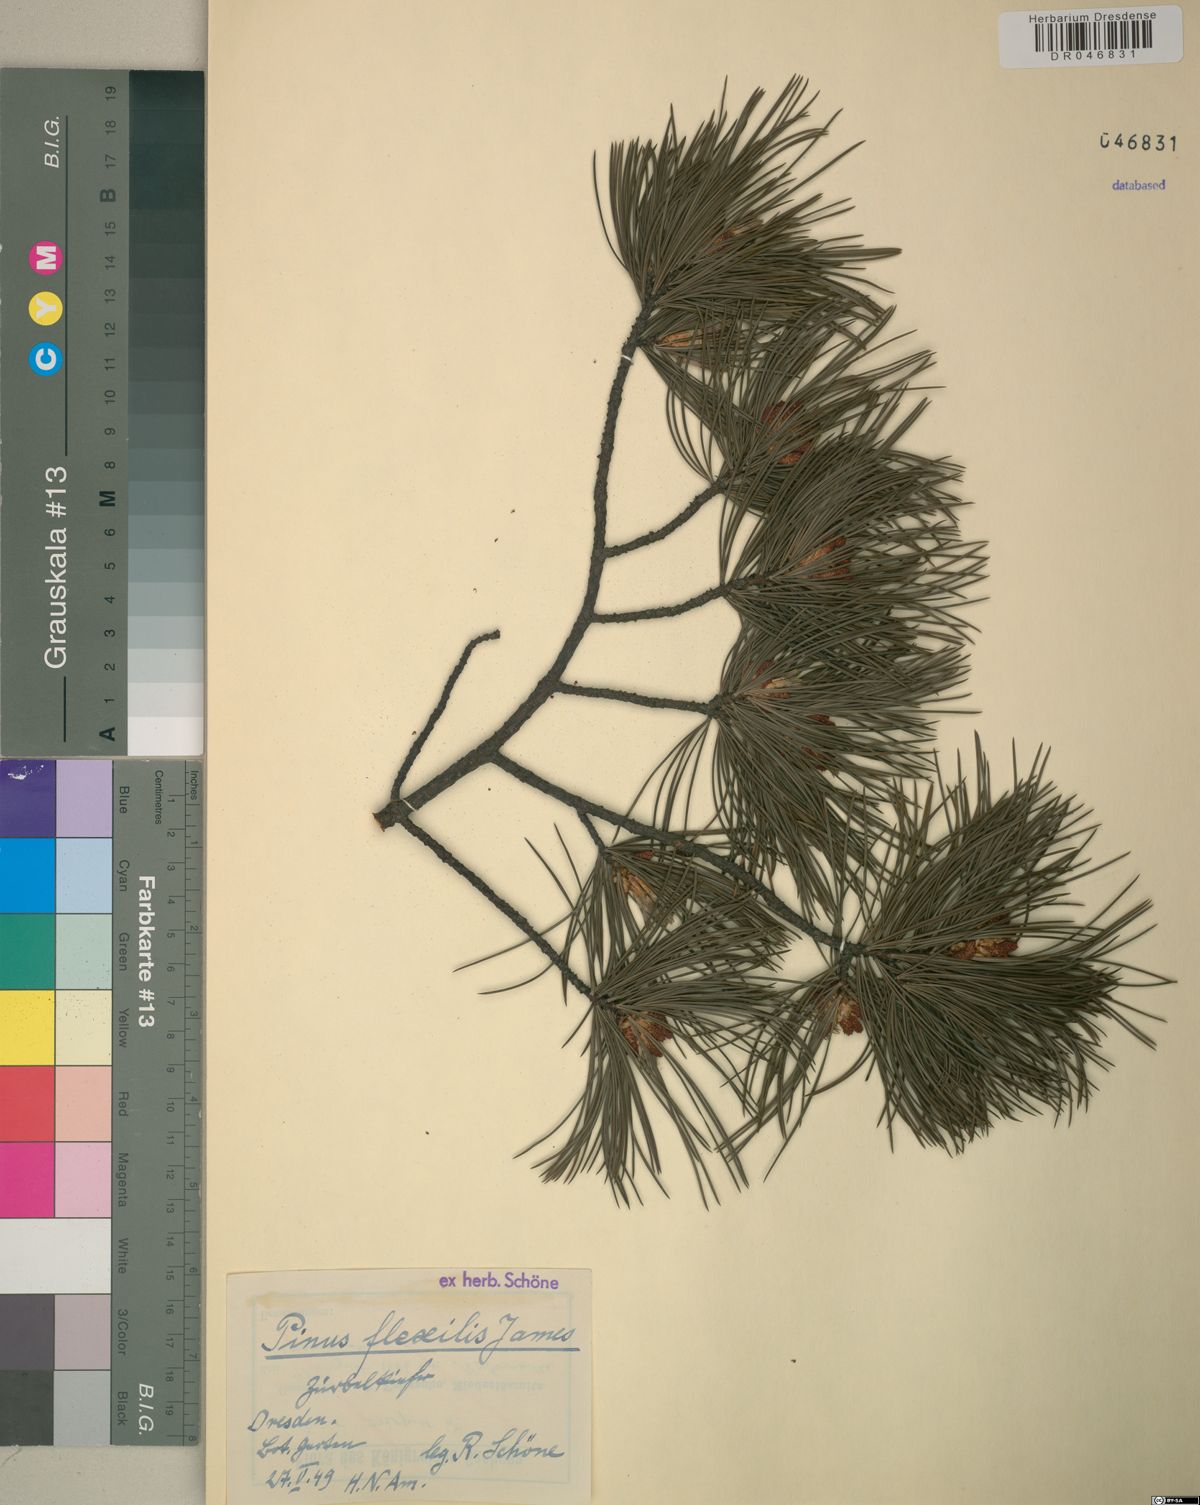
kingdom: Plantae
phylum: Tracheophyta
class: Pinopsida
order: Pinales
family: Pinaceae
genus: Pinus
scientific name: Pinus flexilis
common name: Limber pine
